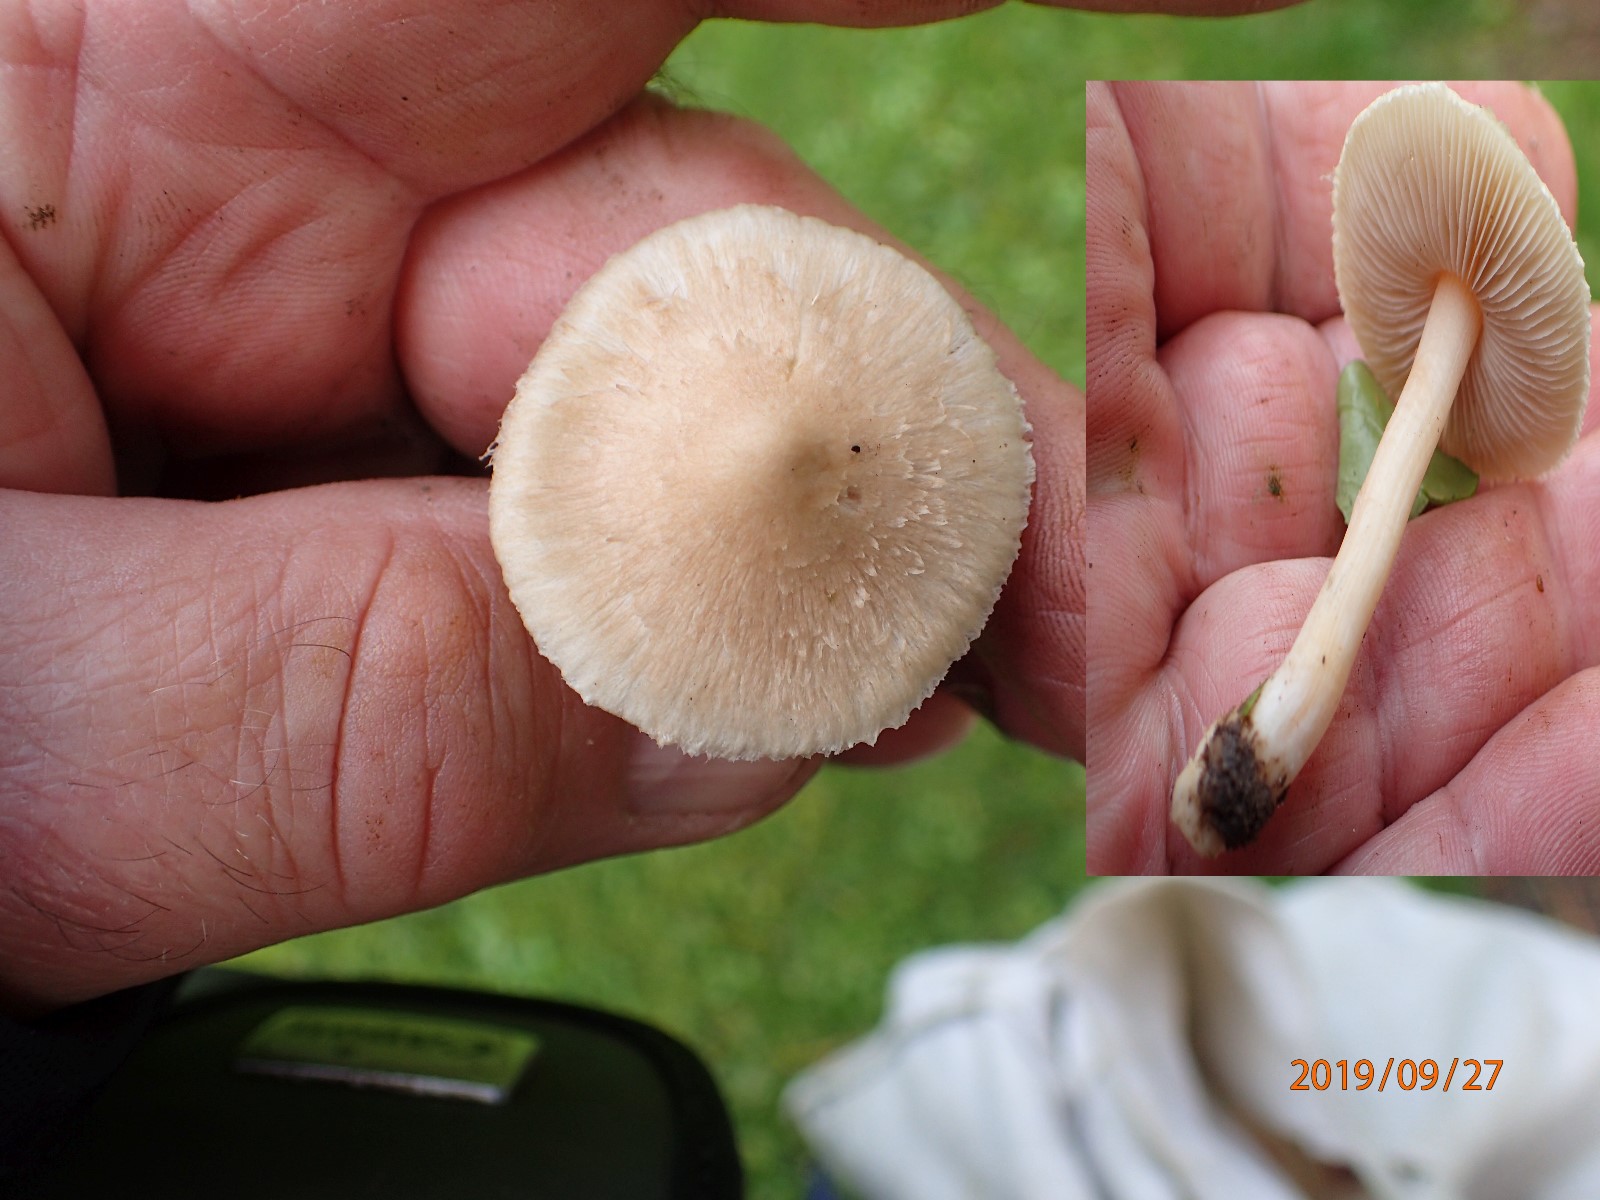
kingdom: Fungi
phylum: Basidiomycota
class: Agaricomycetes
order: Agaricales
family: Inocybaceae
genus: Inocybe
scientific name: Inocybe
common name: trævlhat
